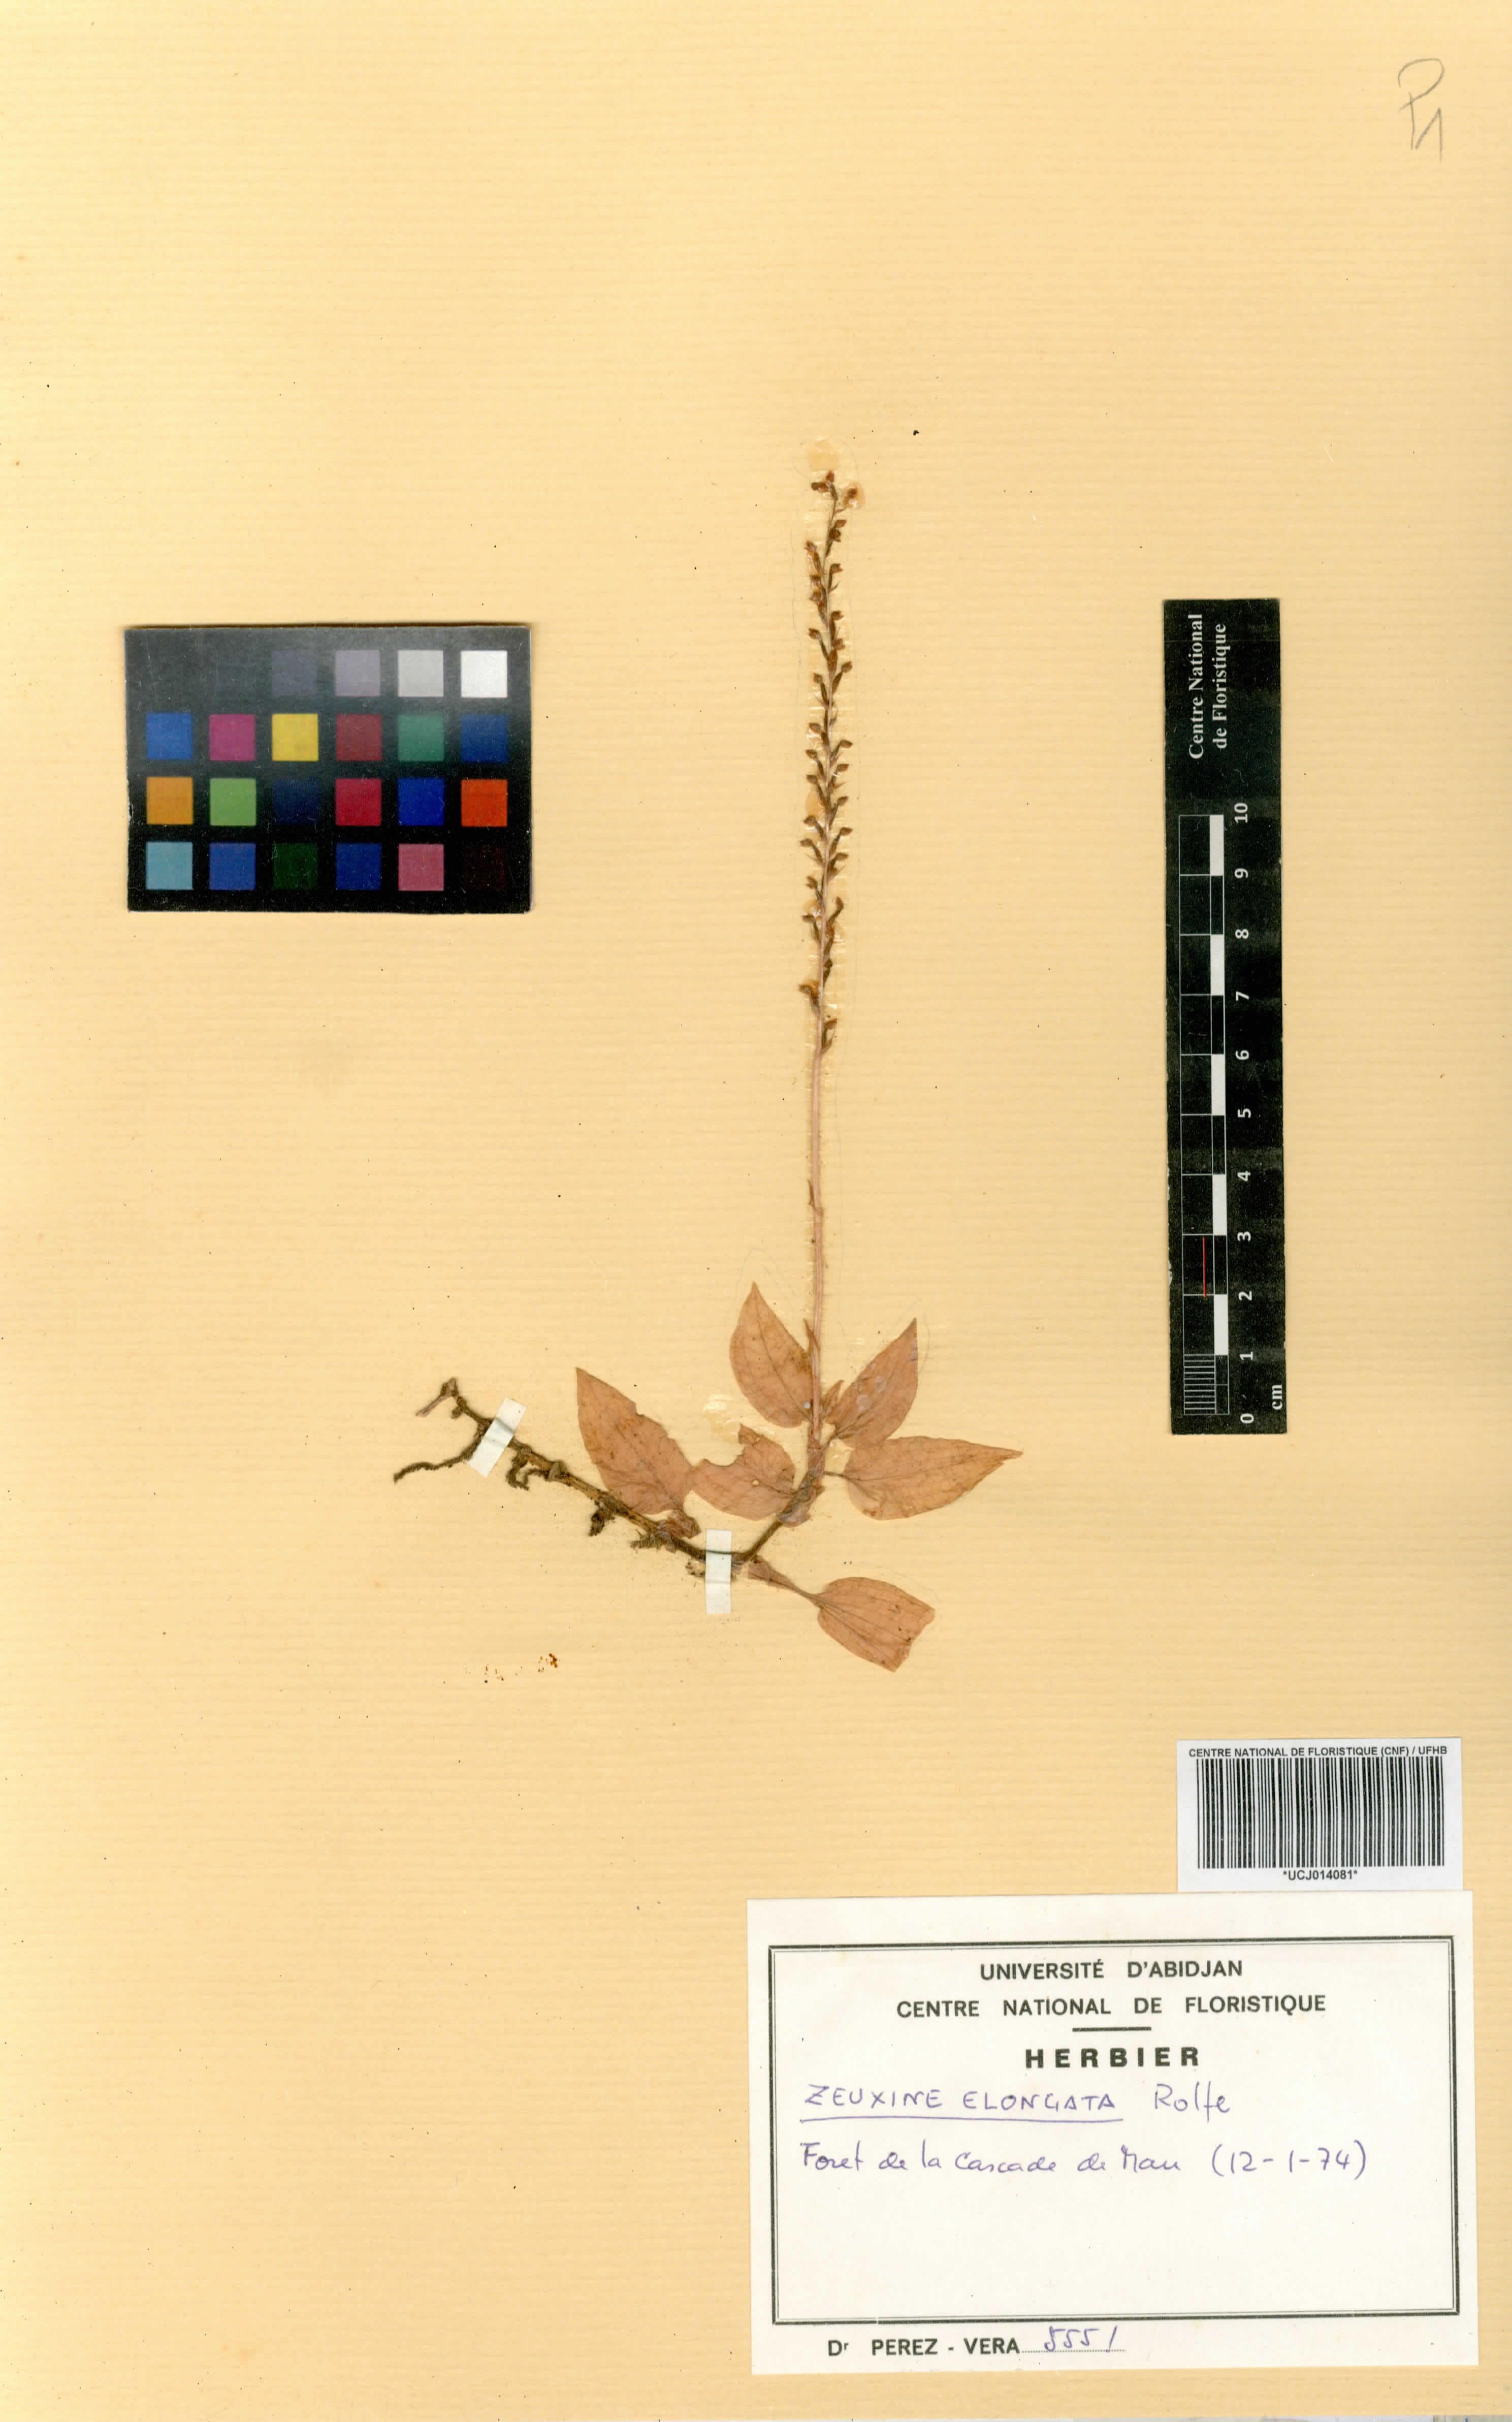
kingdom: Plantae
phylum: Tracheophyta
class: Liliopsida
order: Asparagales
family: Orchidaceae
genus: Zeuxine
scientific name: Zeuxine elongata
